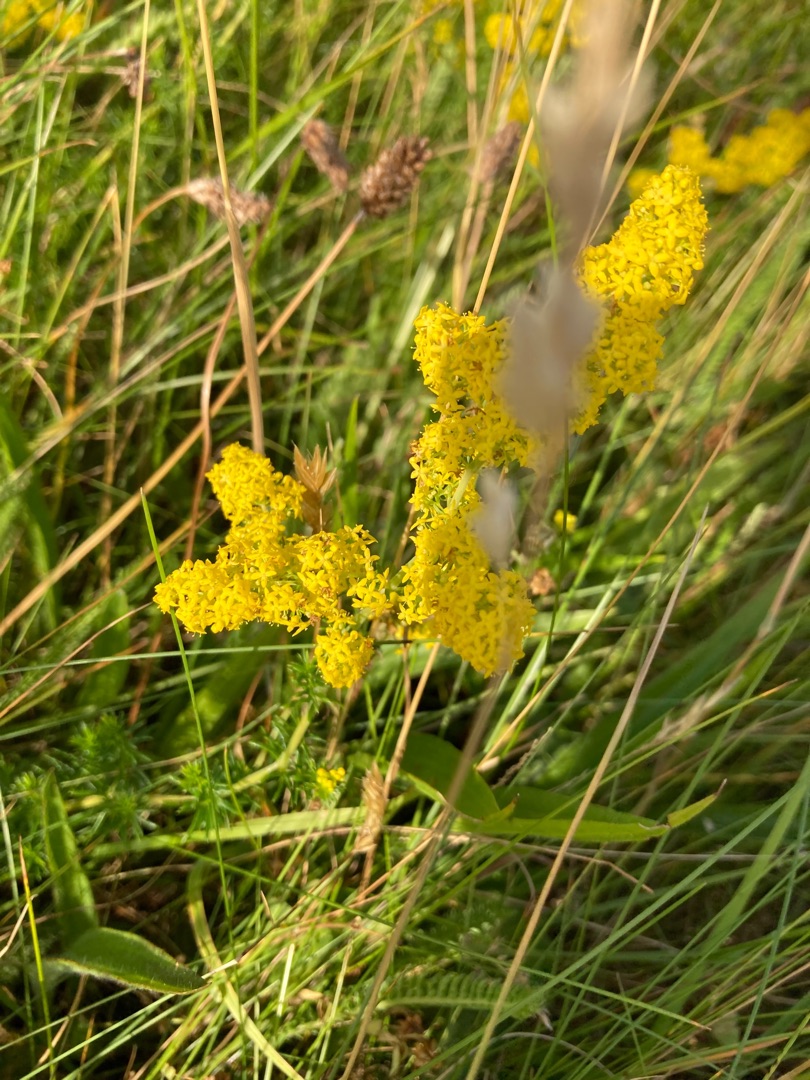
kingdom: Plantae
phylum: Tracheophyta
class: Magnoliopsida
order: Gentianales
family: Rubiaceae
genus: Galium
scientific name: Galium verum
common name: Gul snerre
